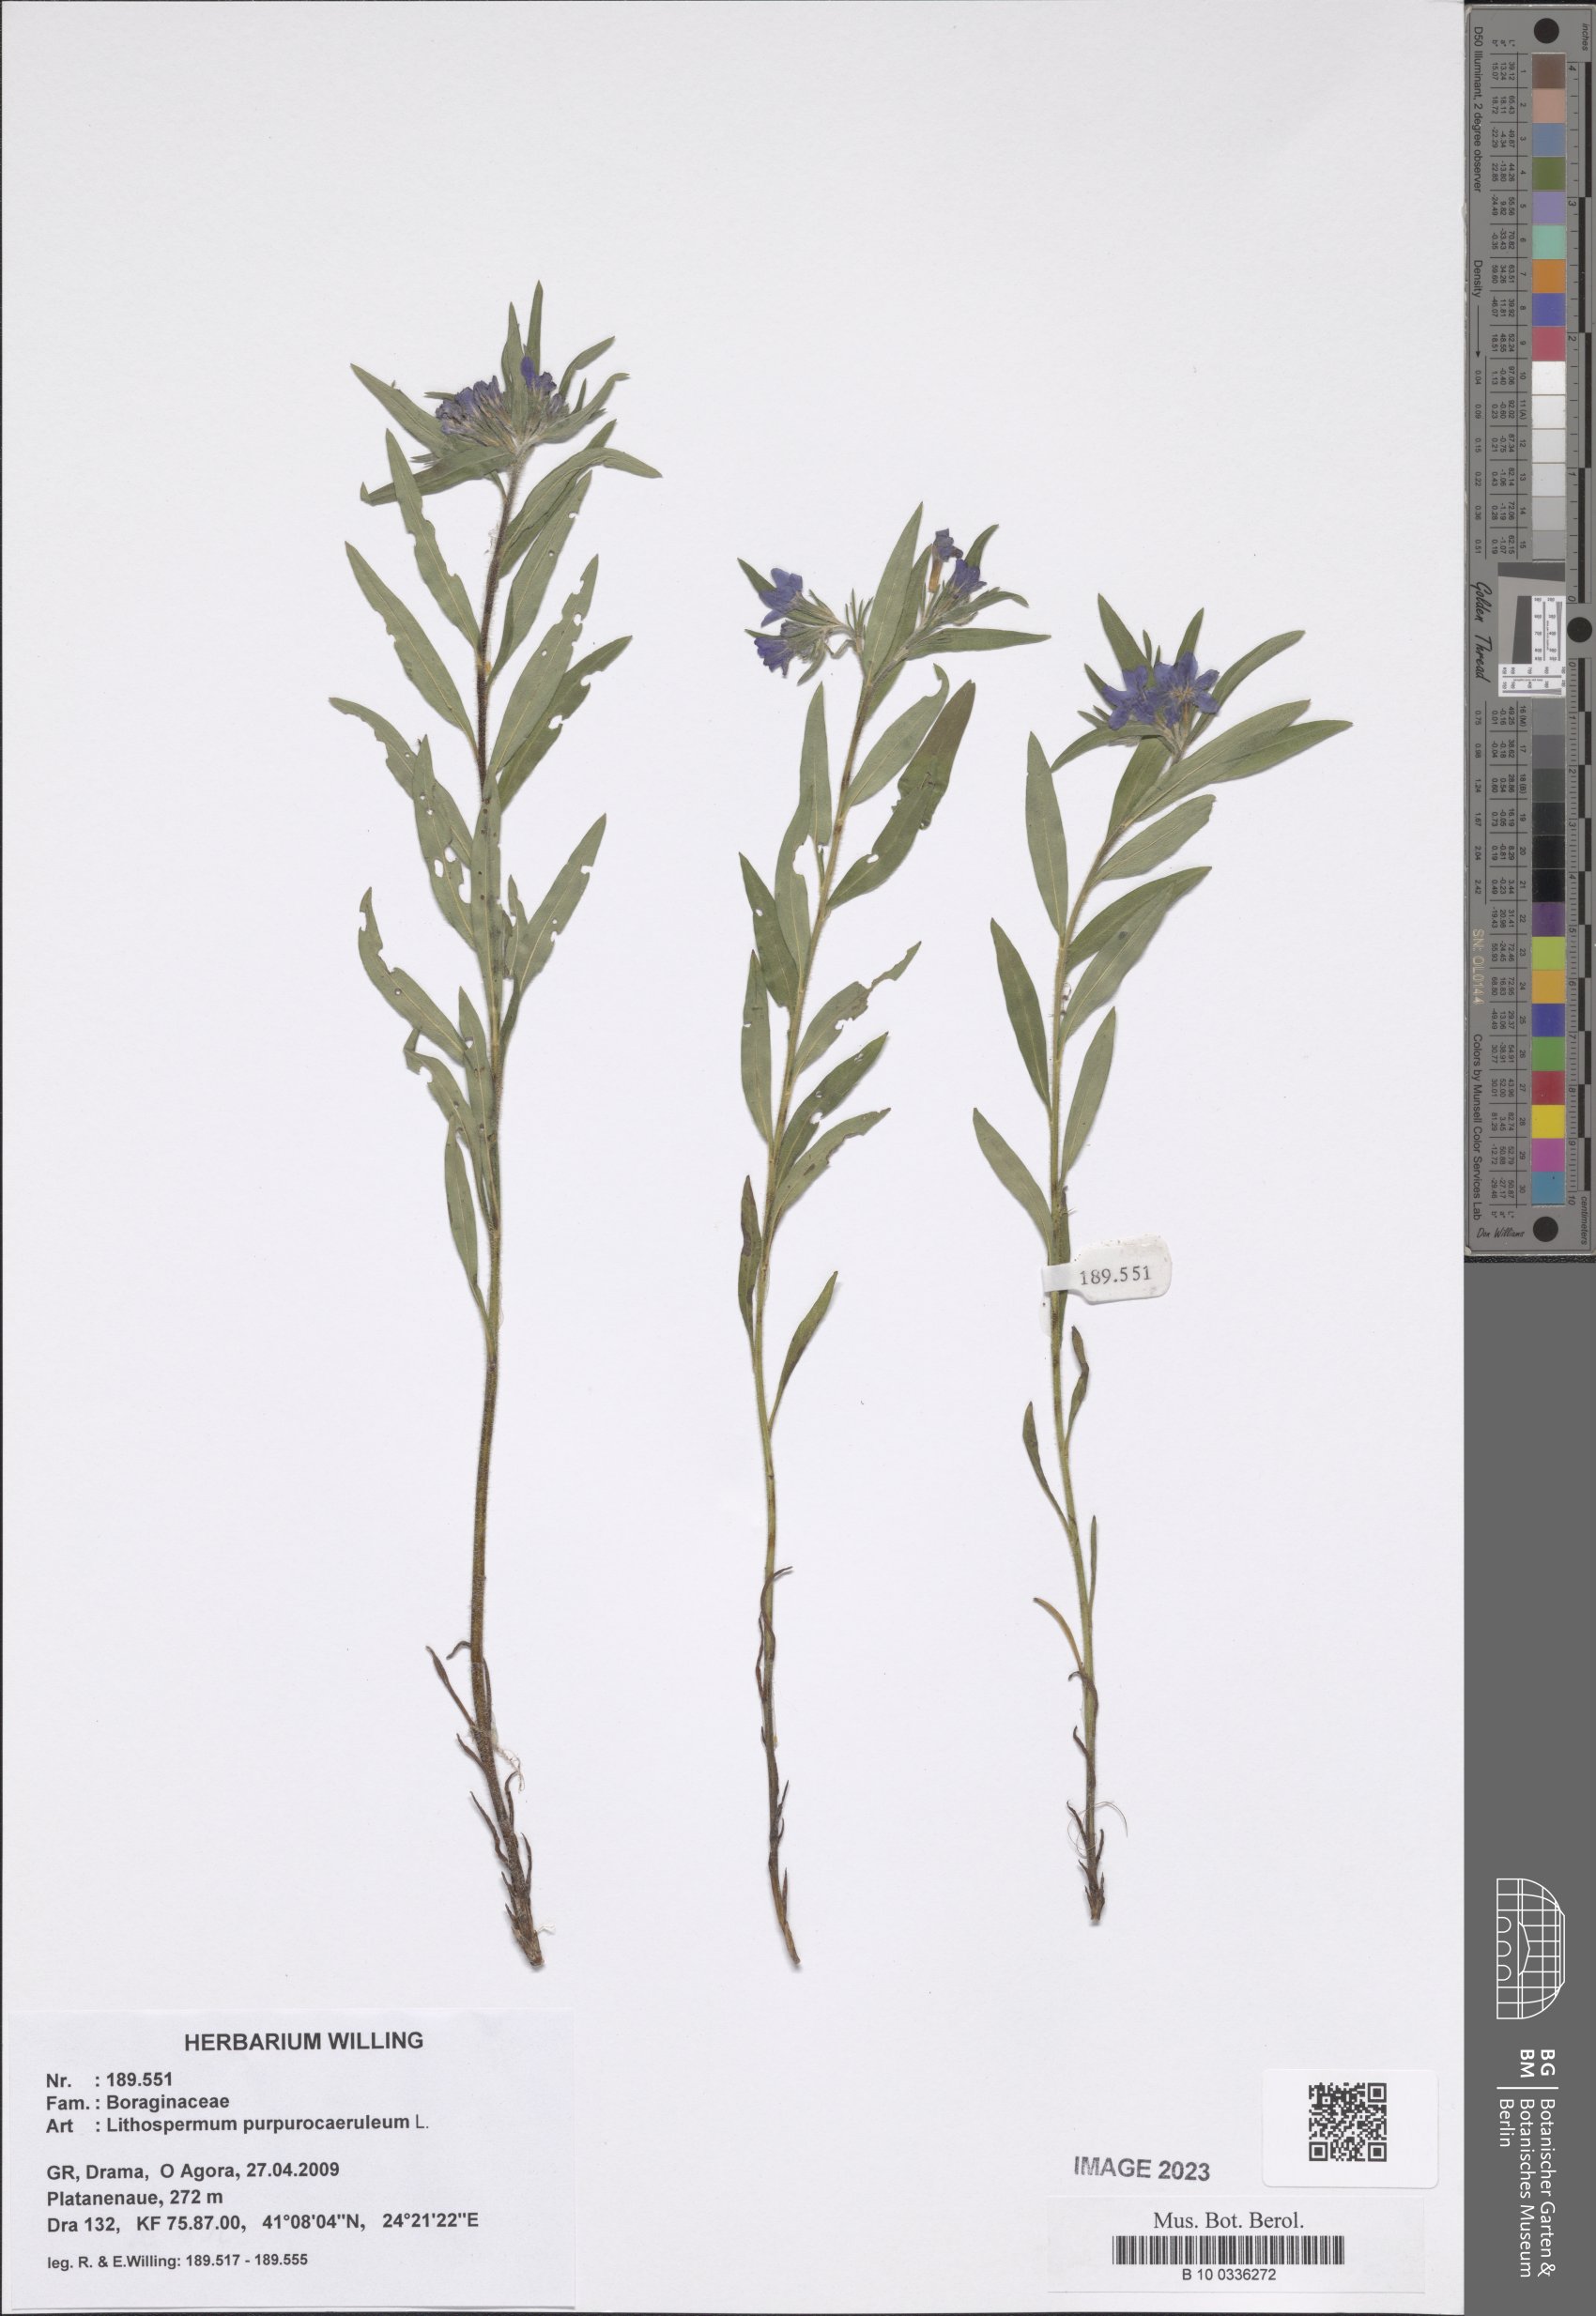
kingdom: Plantae
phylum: Tracheophyta
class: Magnoliopsida
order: Boraginales
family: Boraginaceae
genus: Aegonychon
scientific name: Aegonychon purpurocaeruleum
